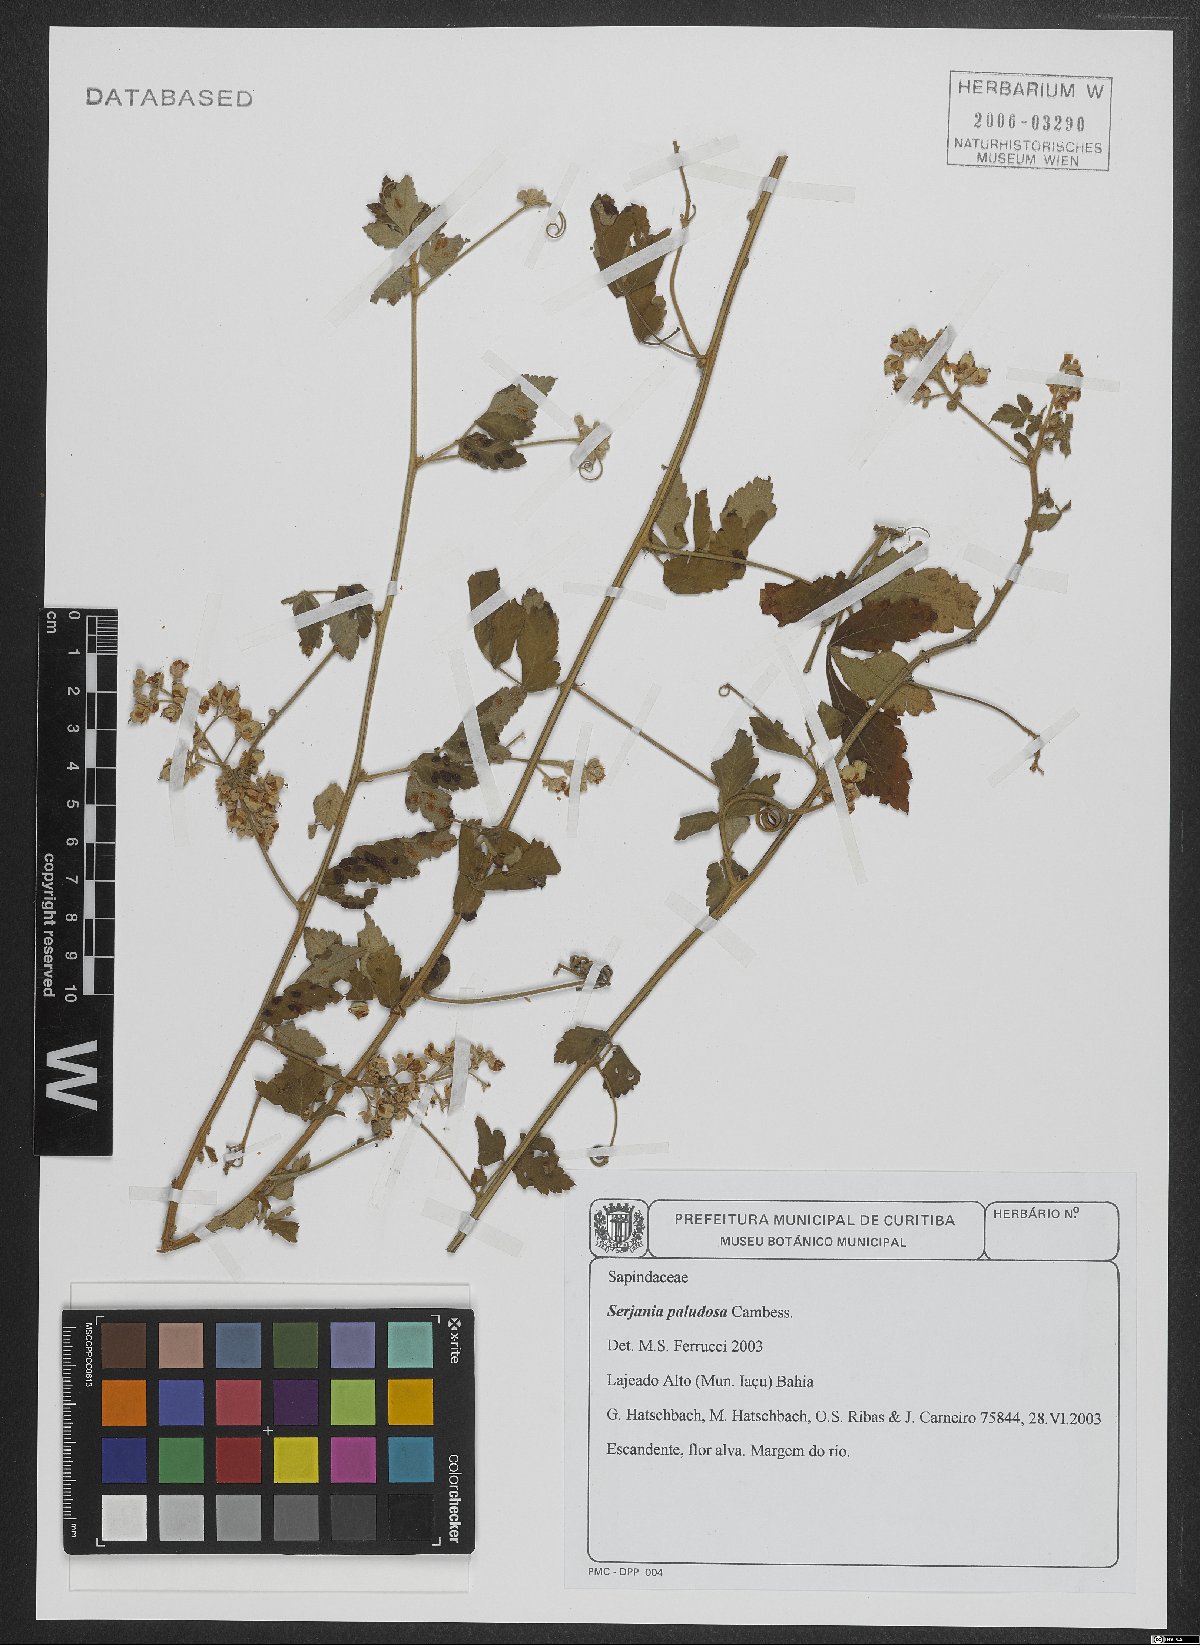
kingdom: Plantae
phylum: Tracheophyta
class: Magnoliopsida
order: Sapindales
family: Sapindaceae
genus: Serjania
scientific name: Serjania paludosa
